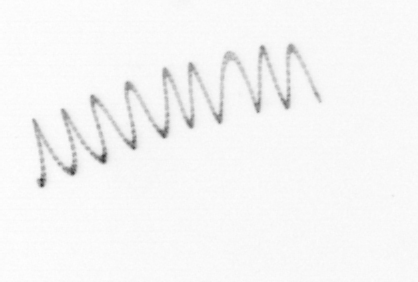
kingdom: Chromista
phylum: Ochrophyta
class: Bacillariophyceae
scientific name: Bacillariophyceae
